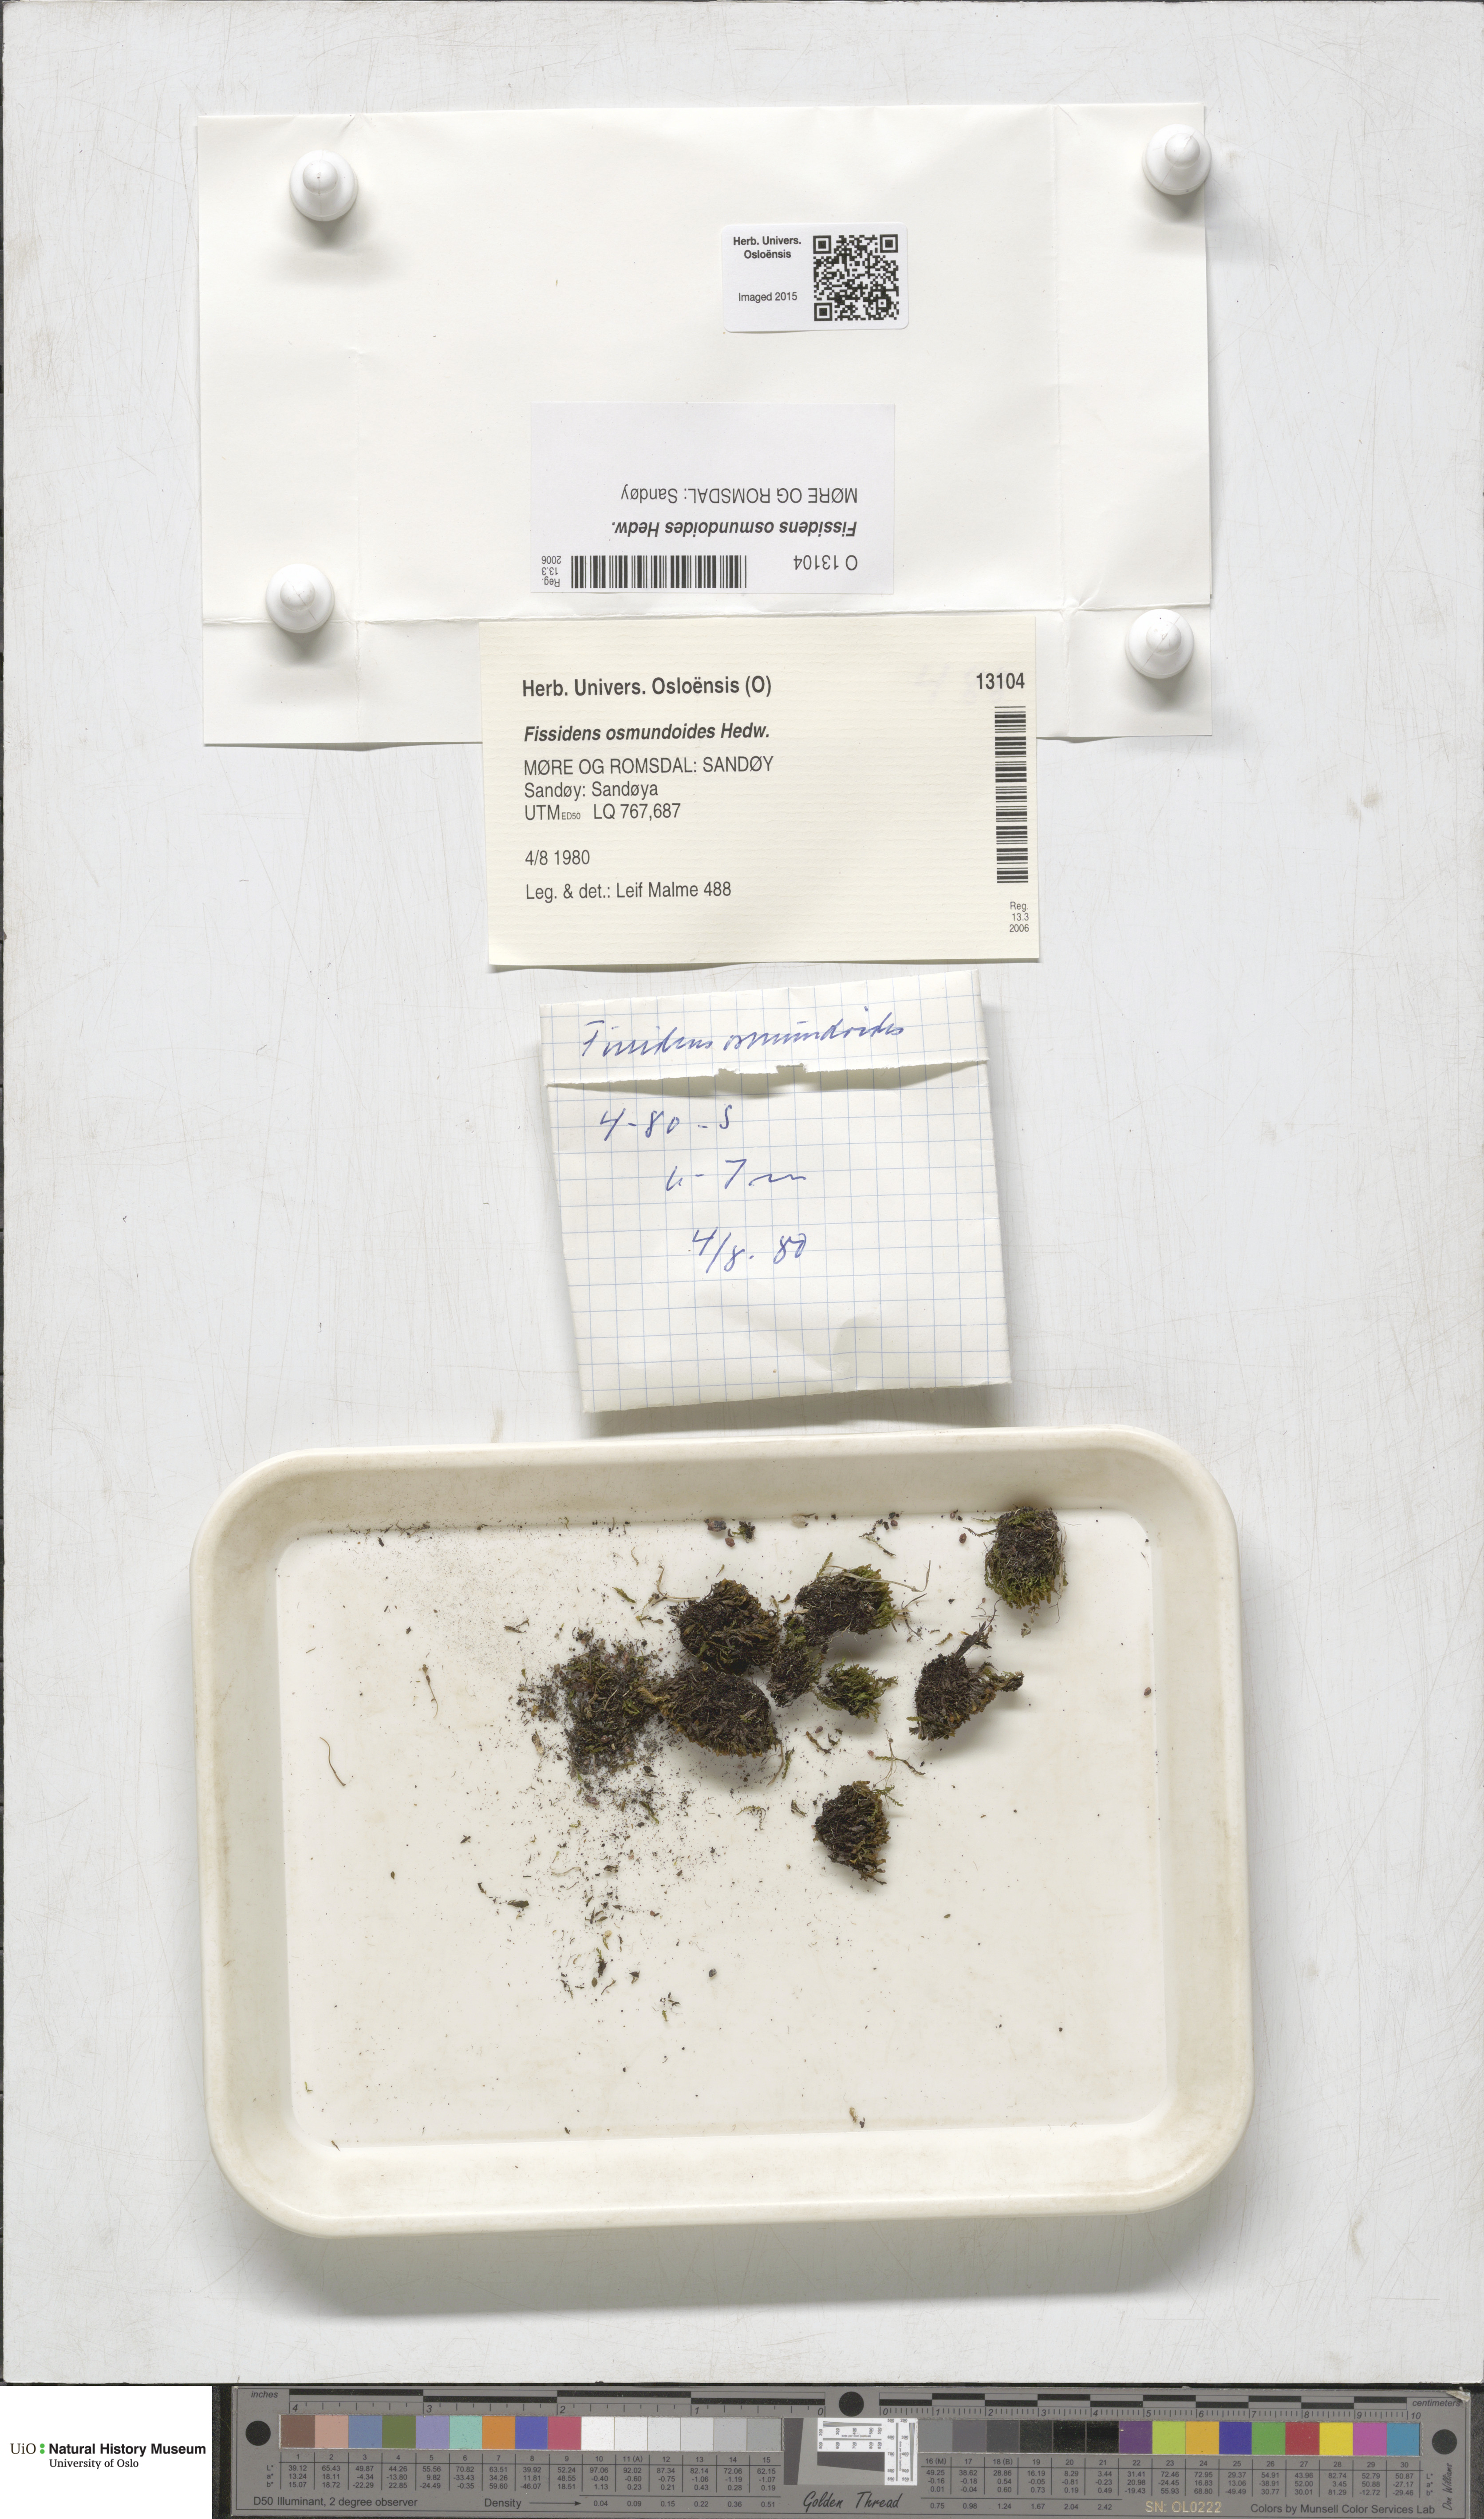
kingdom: Plantae
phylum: Bryophyta
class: Bryopsida
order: Dicranales
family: Fissidentaceae
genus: Fissidens
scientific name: Fissidens osmundoides
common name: Purple-stalked pocket moss
